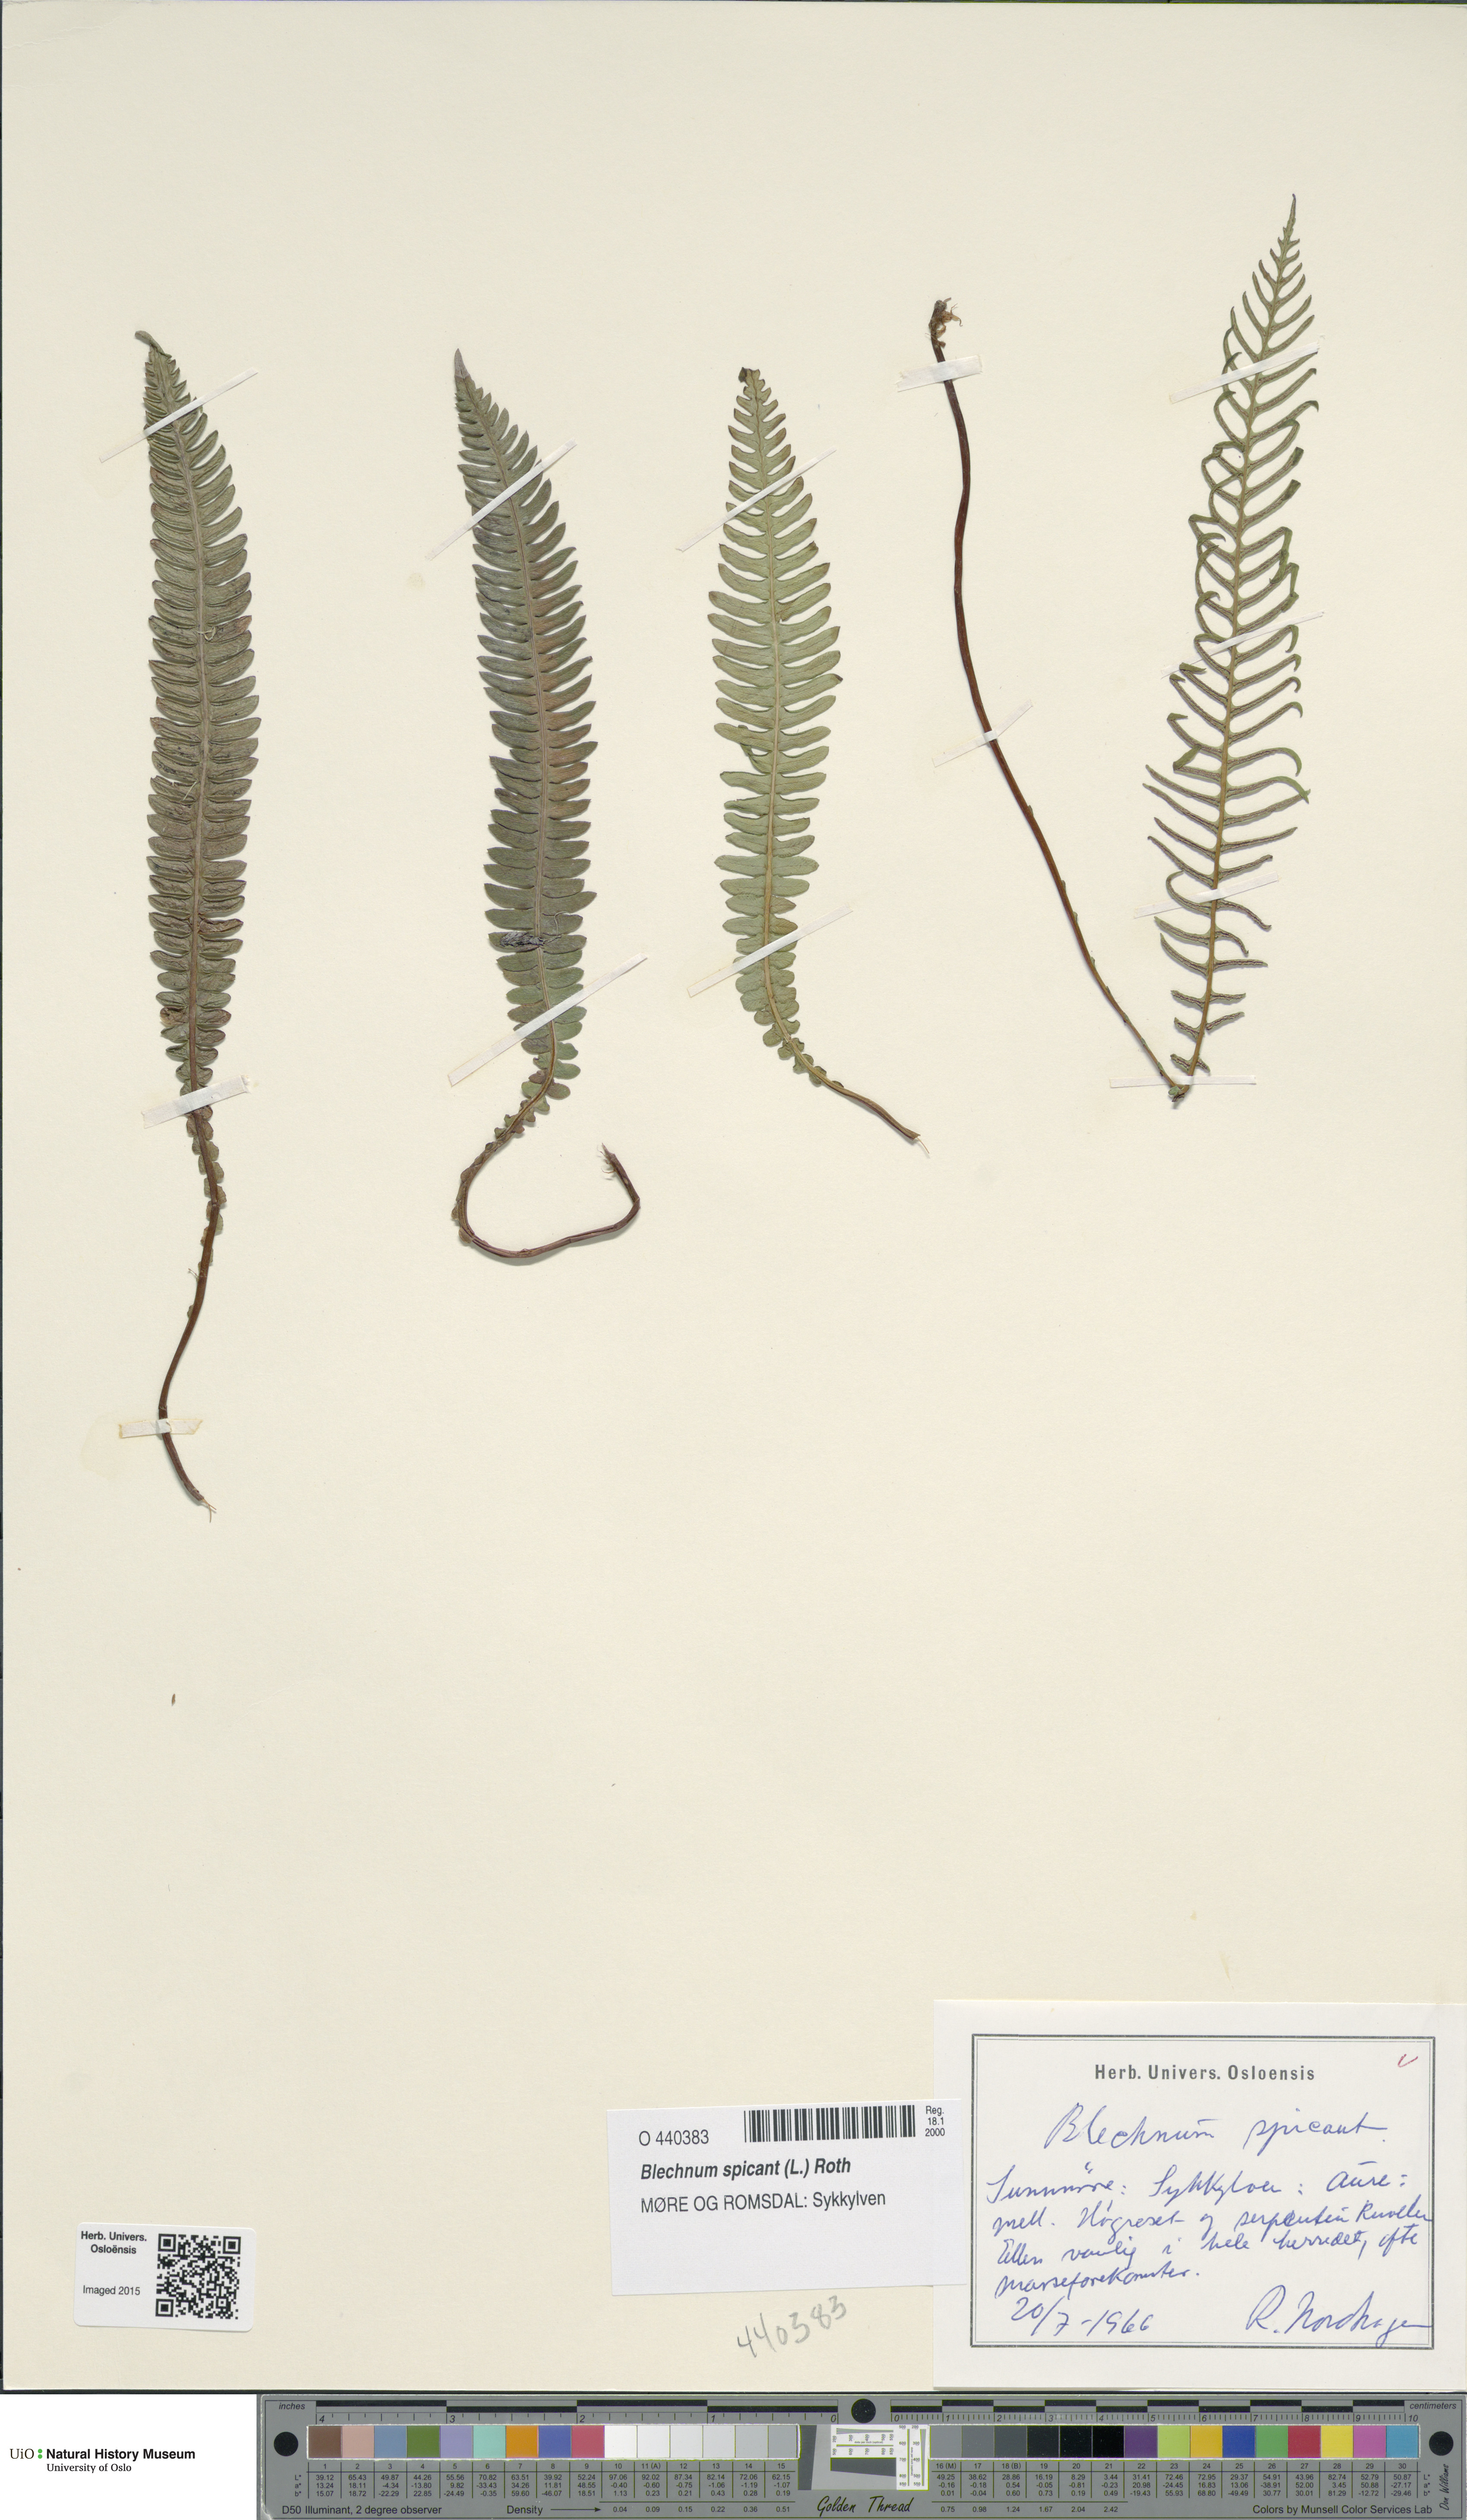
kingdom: Plantae
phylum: Tracheophyta
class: Polypodiopsida
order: Polypodiales
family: Blechnaceae
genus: Struthiopteris
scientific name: Struthiopteris spicant
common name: Deer fern
